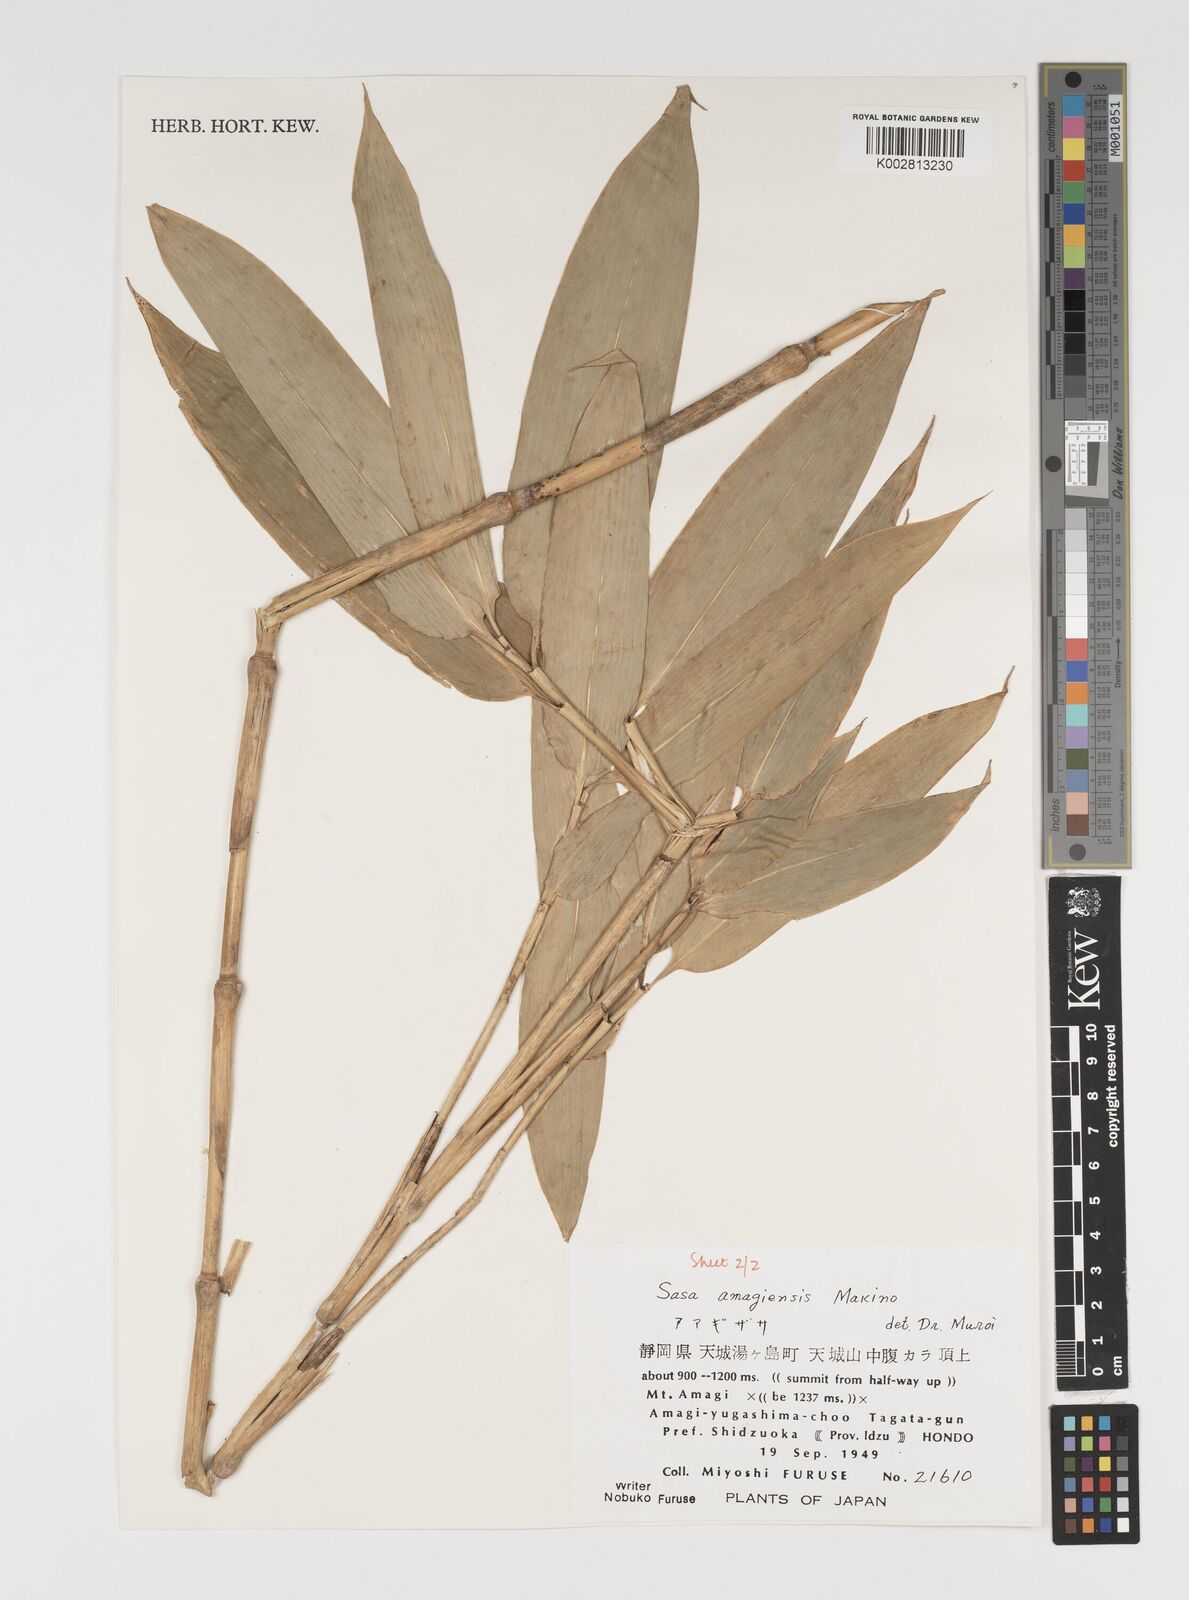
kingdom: Plantae
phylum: Tracheophyta
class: Liliopsida
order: Poales
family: Poaceae
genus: Sasa
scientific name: Sasa tsuboiana
